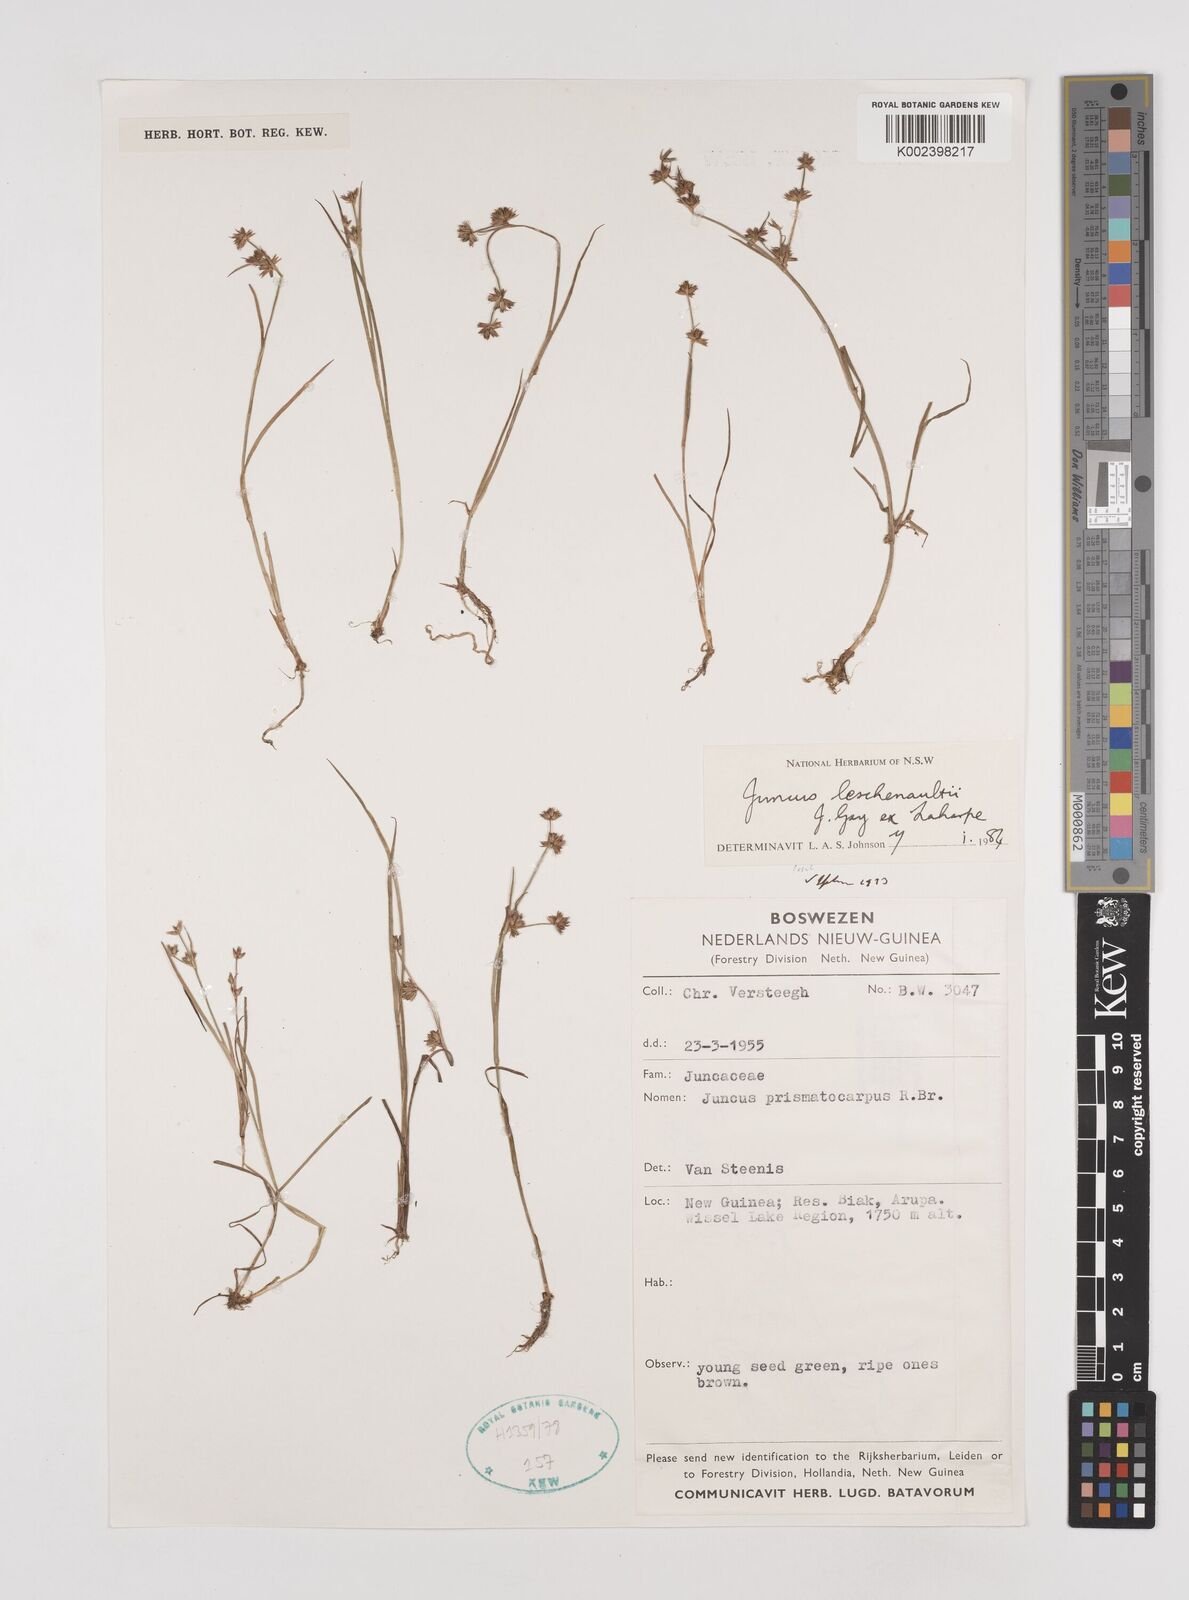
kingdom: Plantae
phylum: Tracheophyta
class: Liliopsida
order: Poales
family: Juncaceae
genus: Juncus
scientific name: Juncus prismatocarpus
